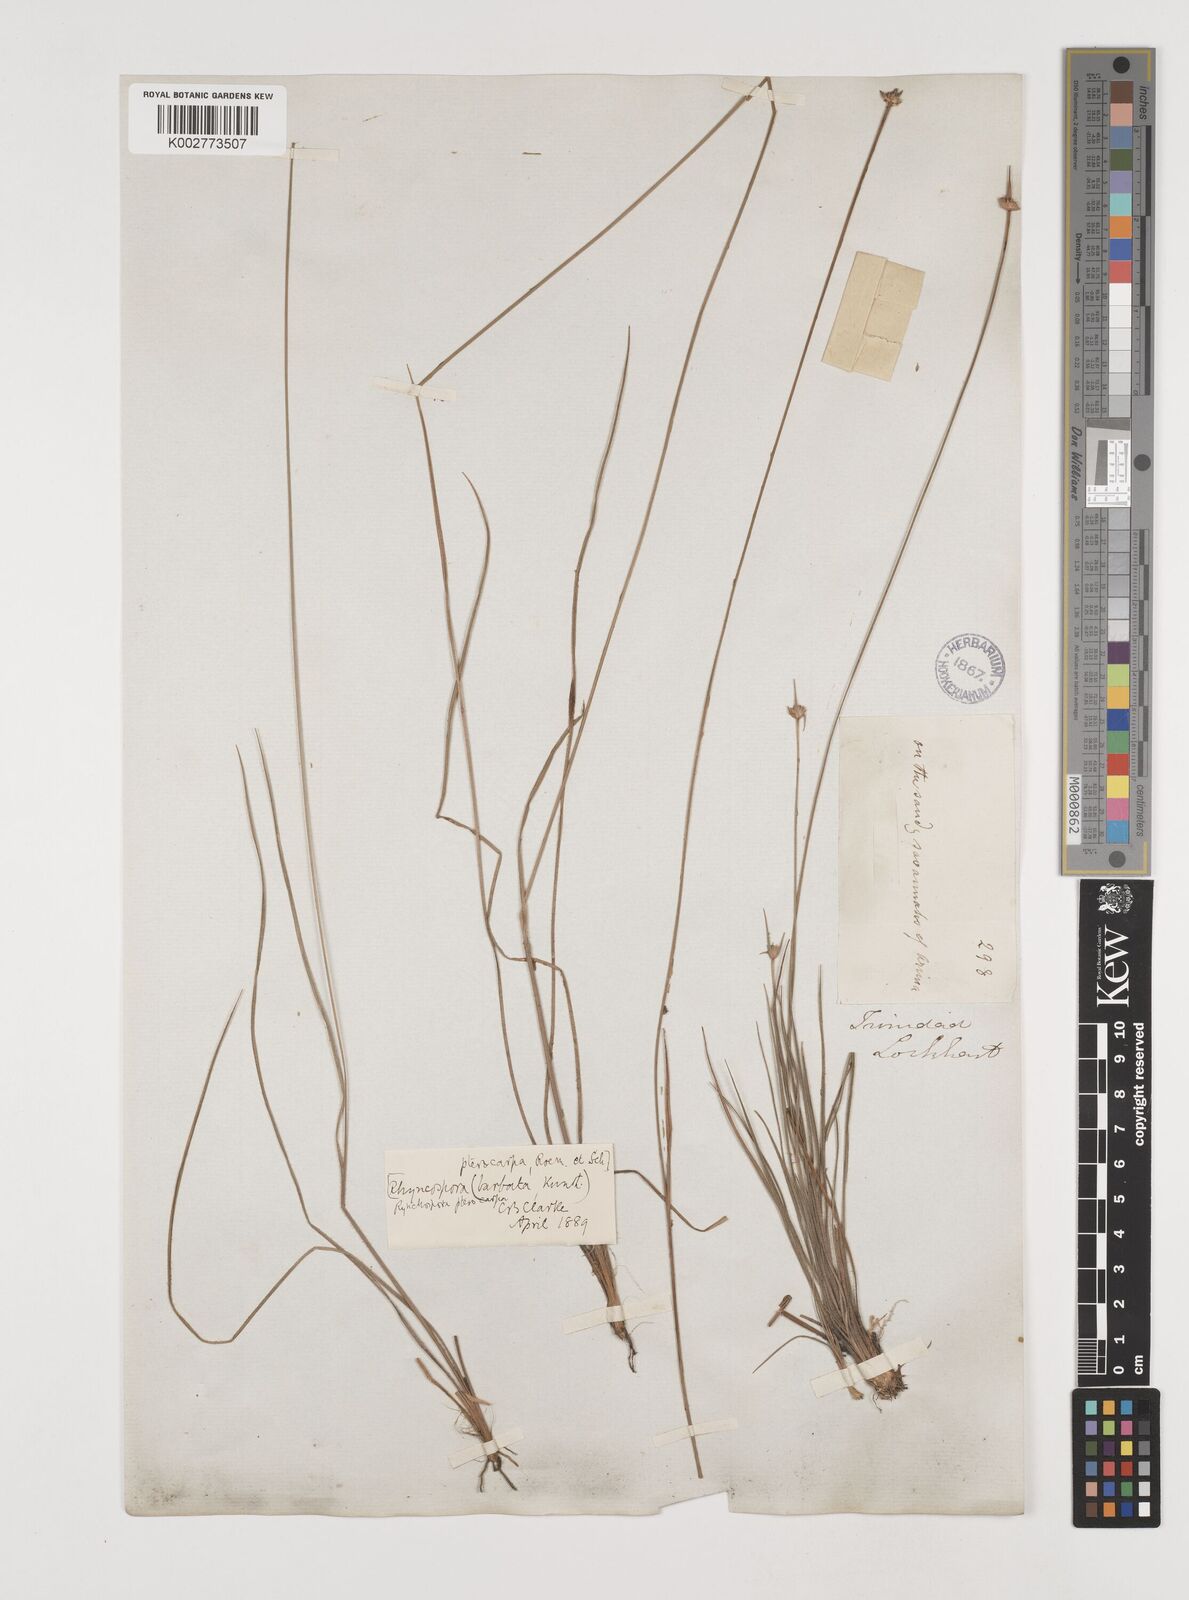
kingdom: Plantae
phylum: Tracheophyta
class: Liliopsida
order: Poales
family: Cyperaceae
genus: Rhynchospora
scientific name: Rhynchospora barbata
